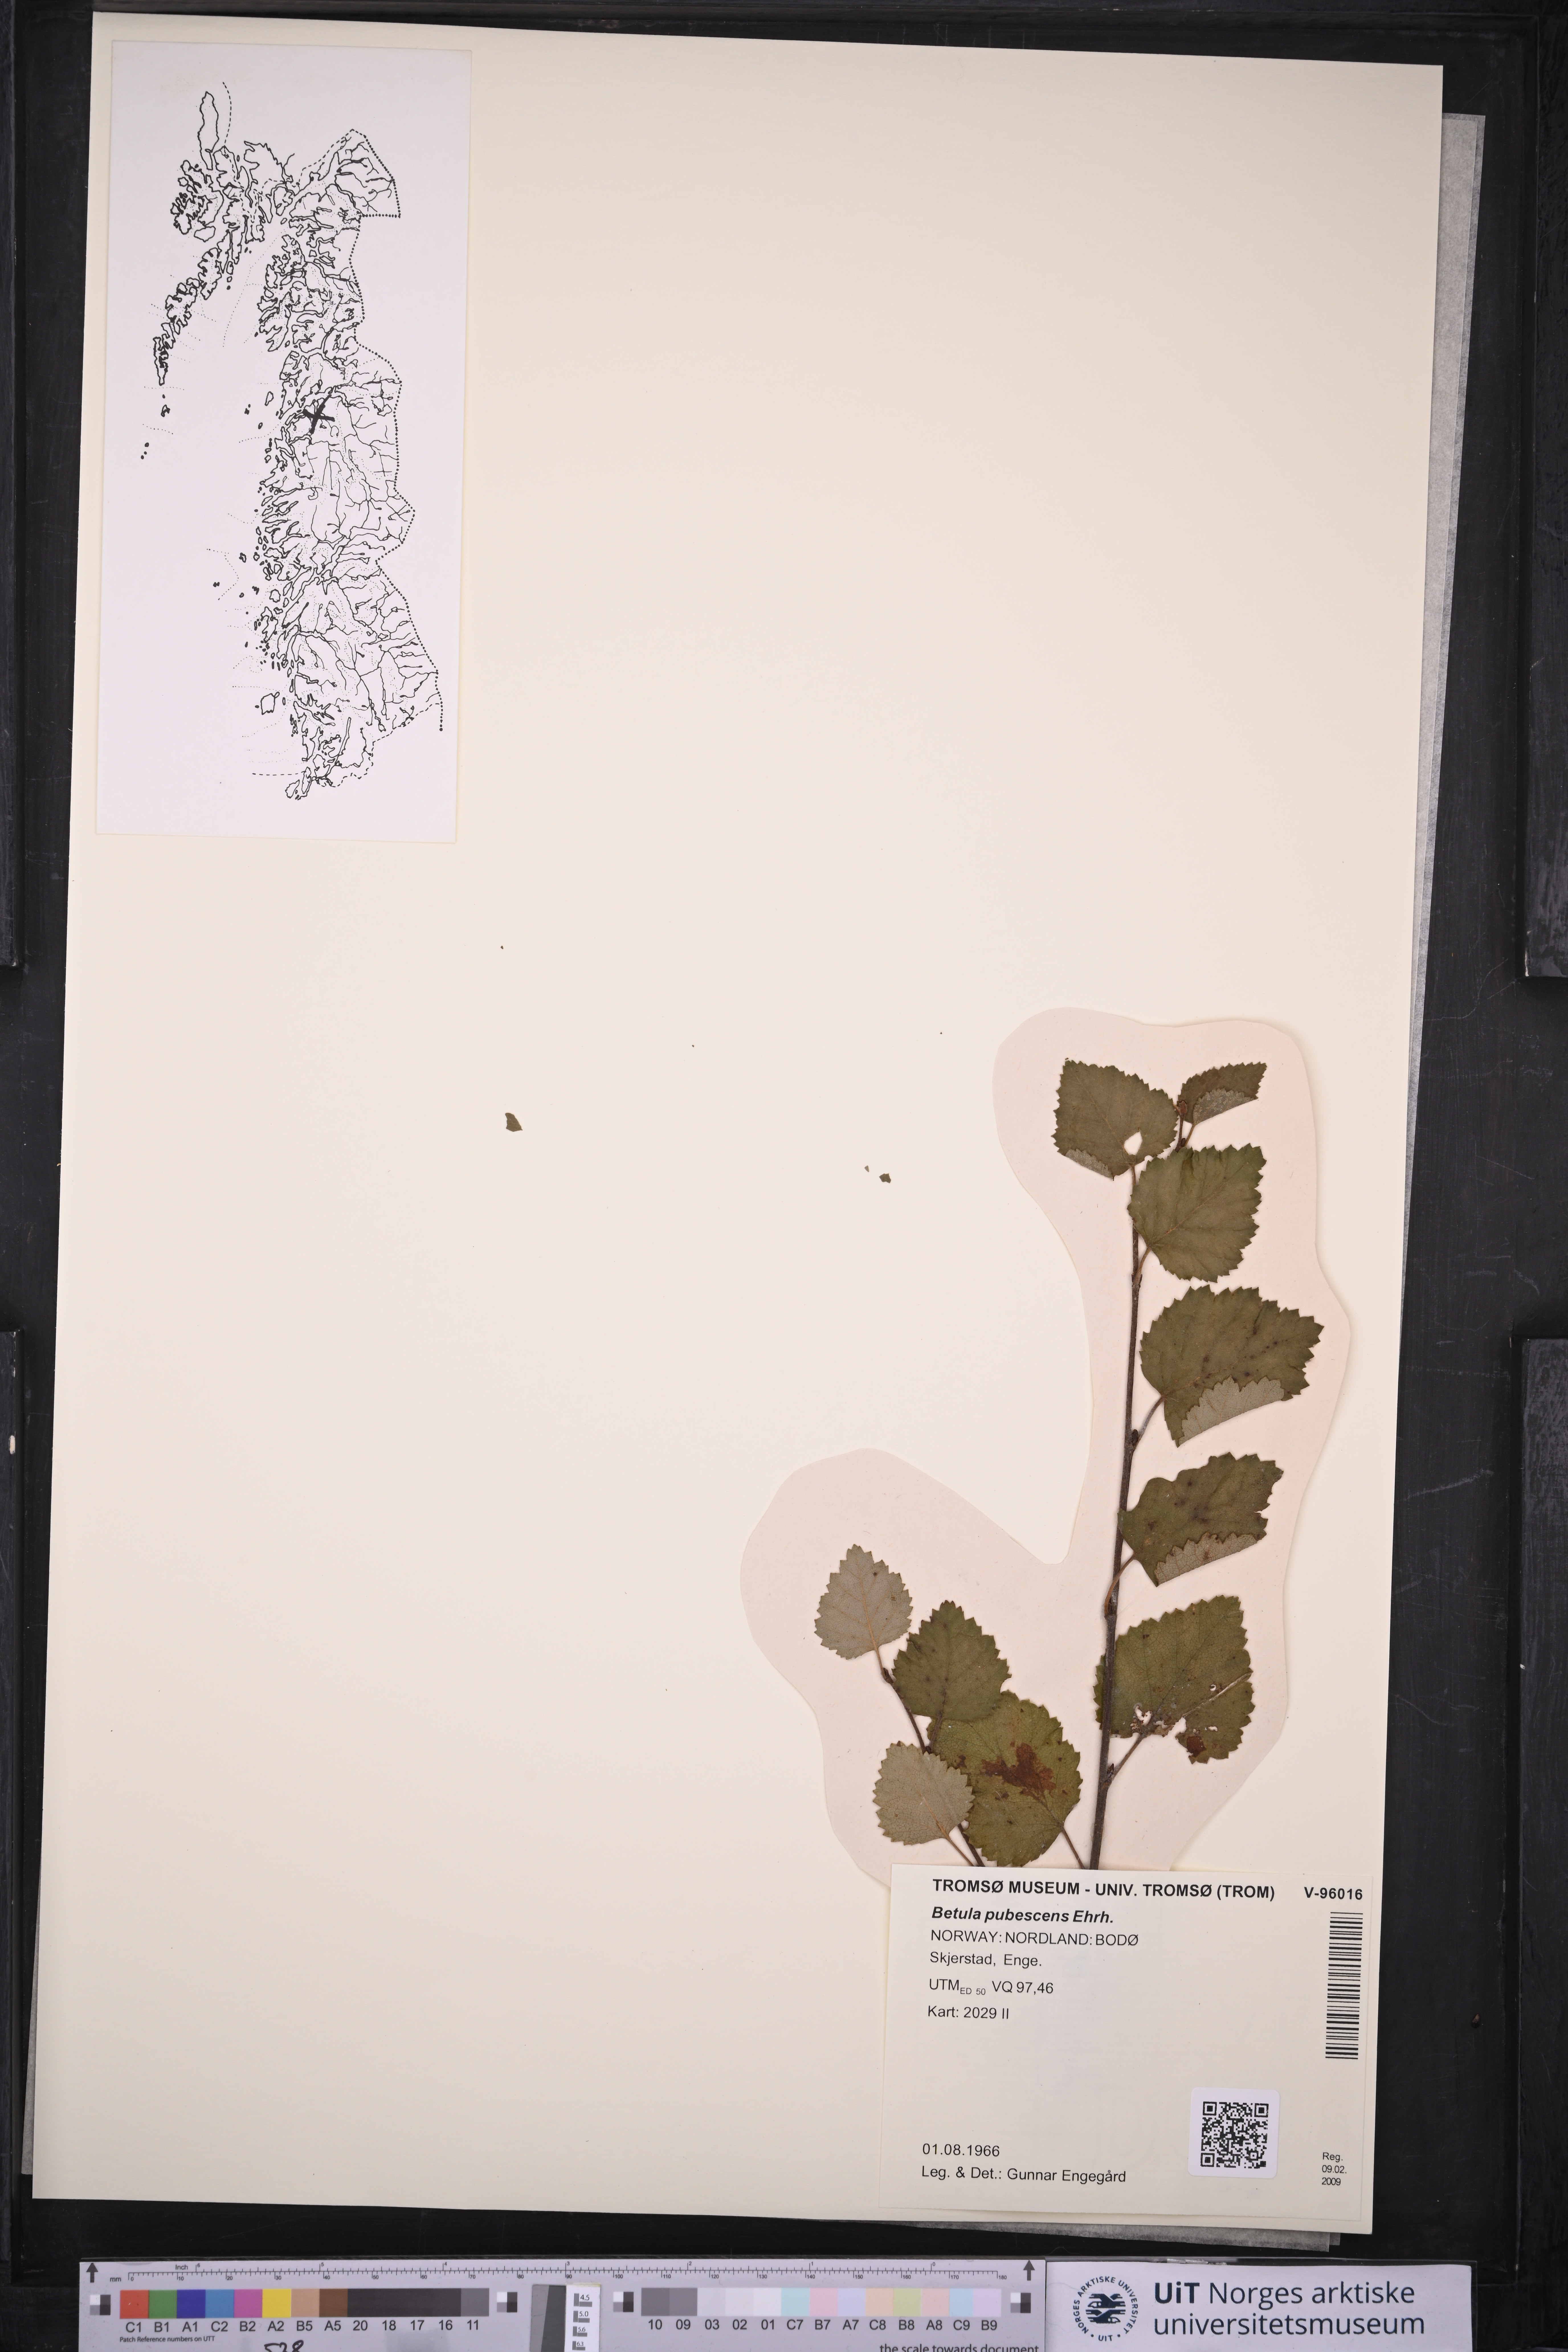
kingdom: Plantae
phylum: Tracheophyta
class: Magnoliopsida
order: Fagales
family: Betulaceae
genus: Betula
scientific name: Betula pubescens
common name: Downy birch
